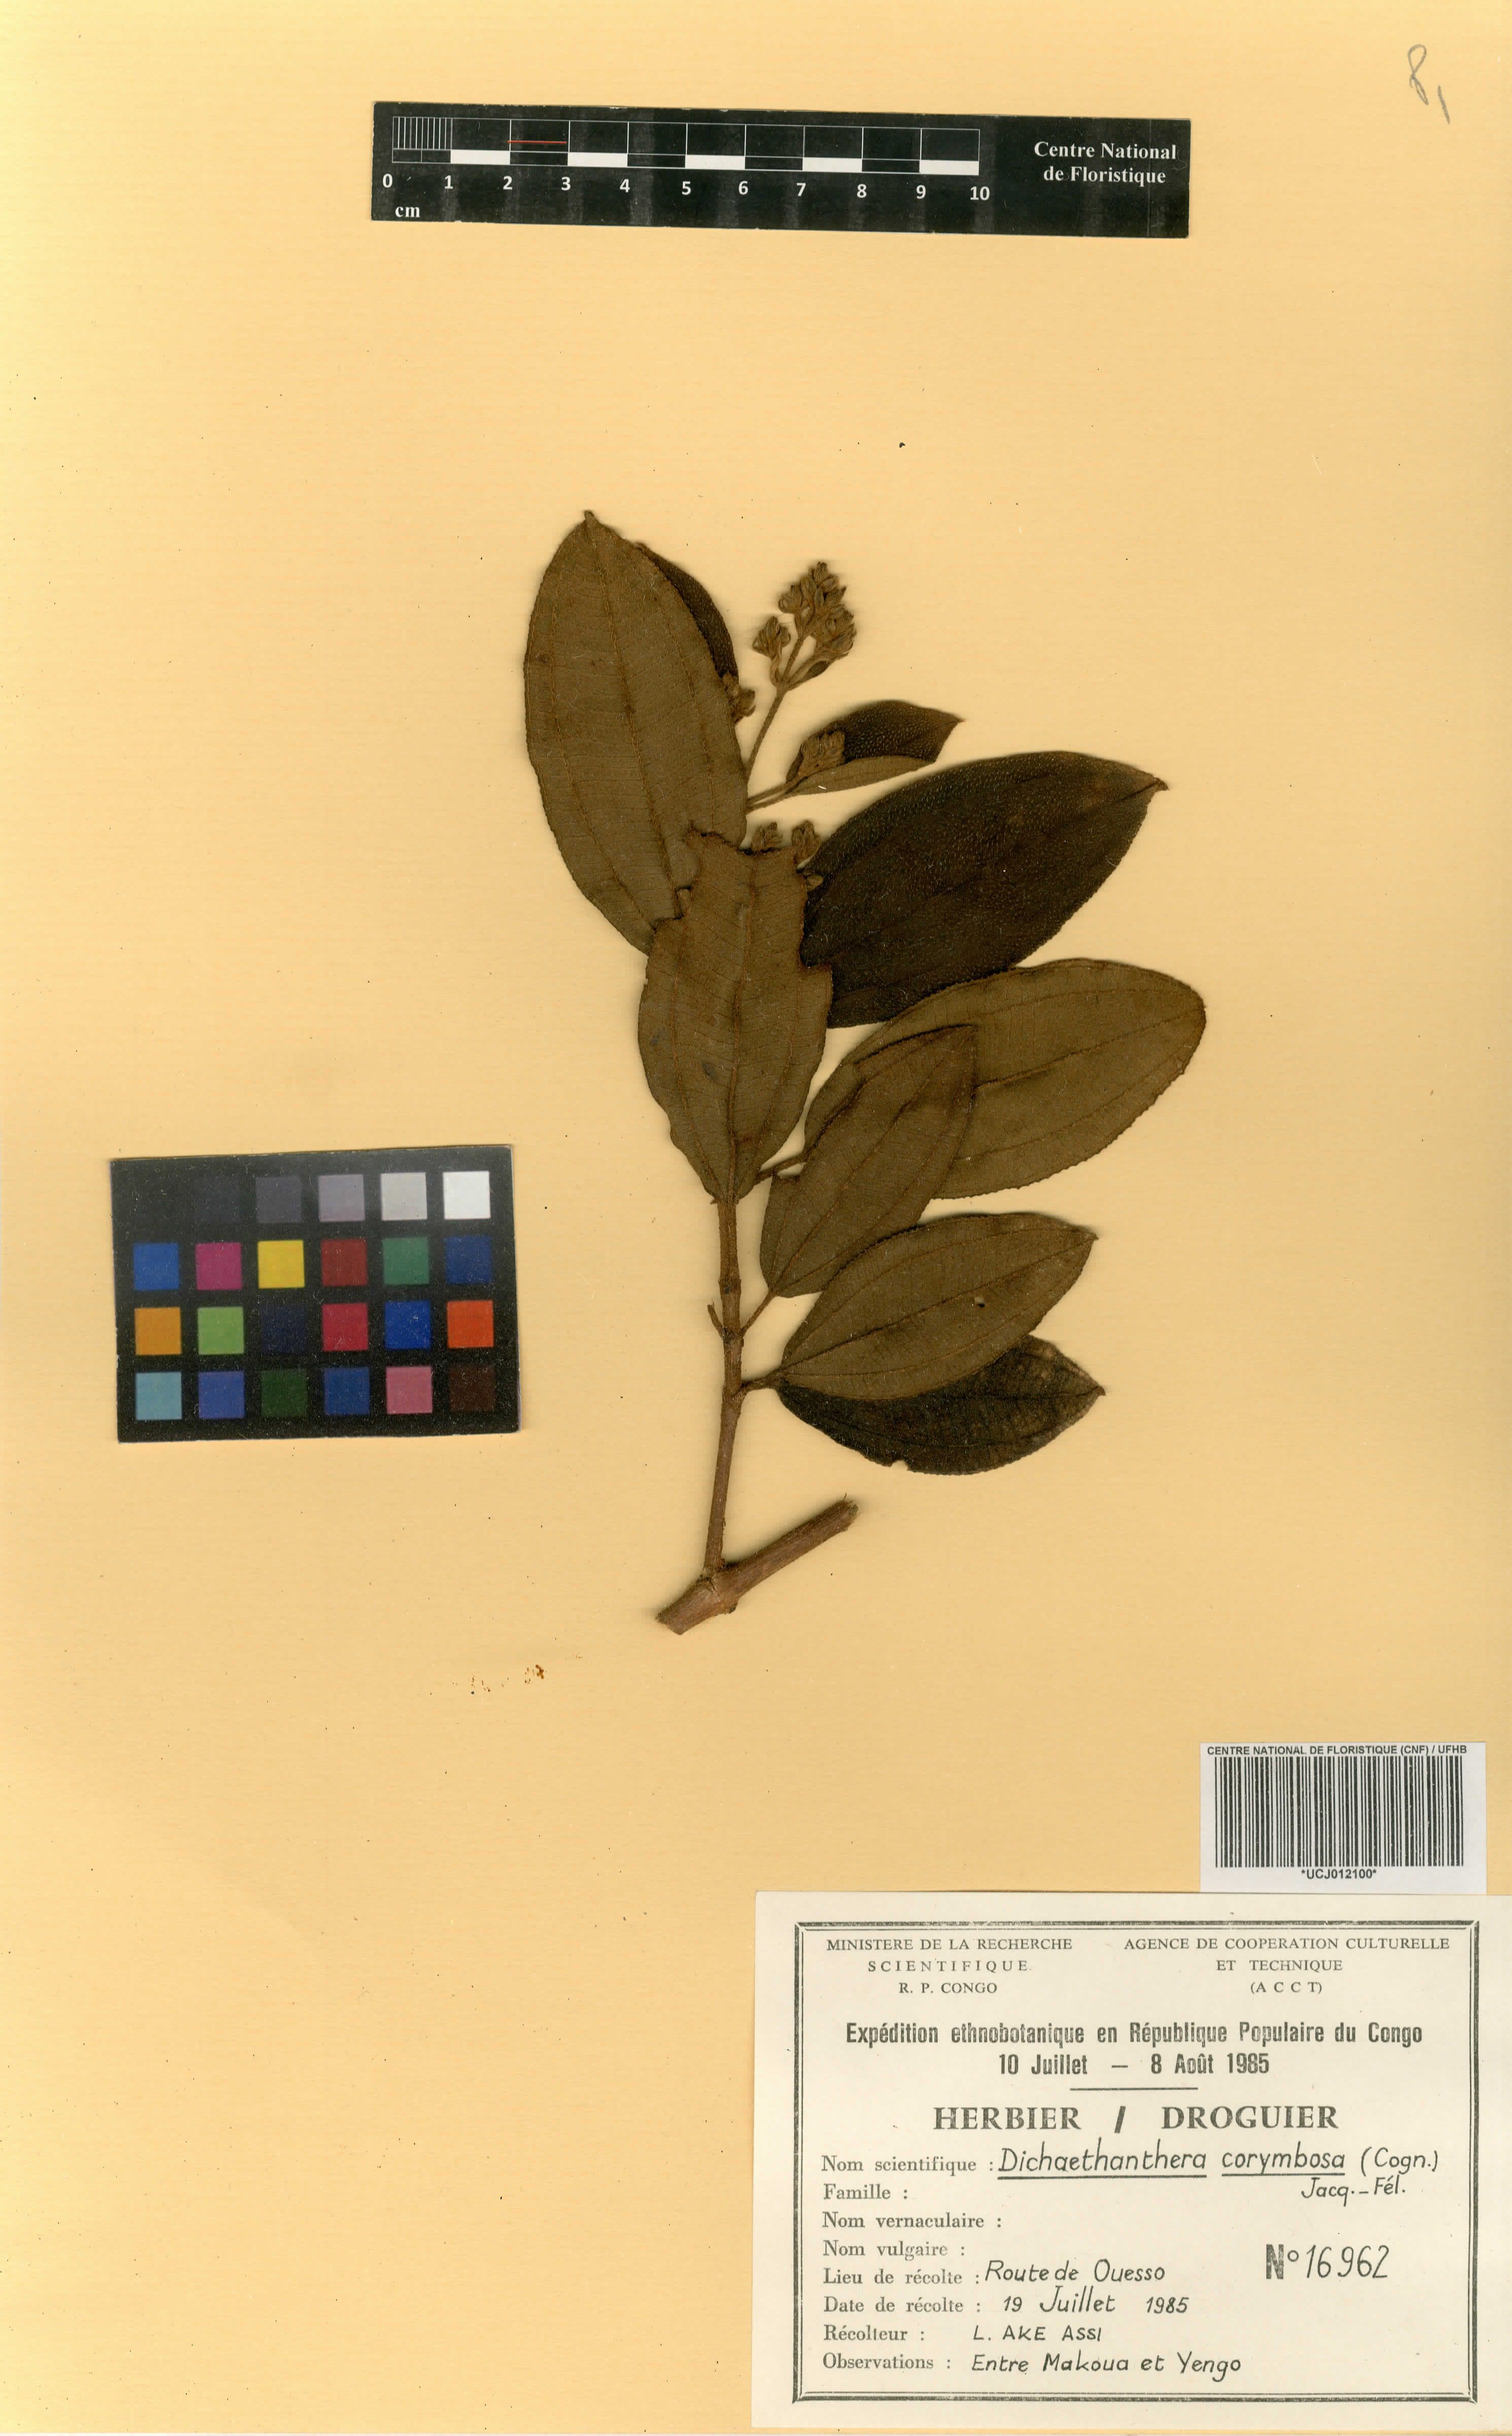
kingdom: Plantae
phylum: Tracheophyta
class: Magnoliopsida
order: Myrtales
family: Melastomataceae
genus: Dichaetanthera
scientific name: Dichaetanthera corymbosa
